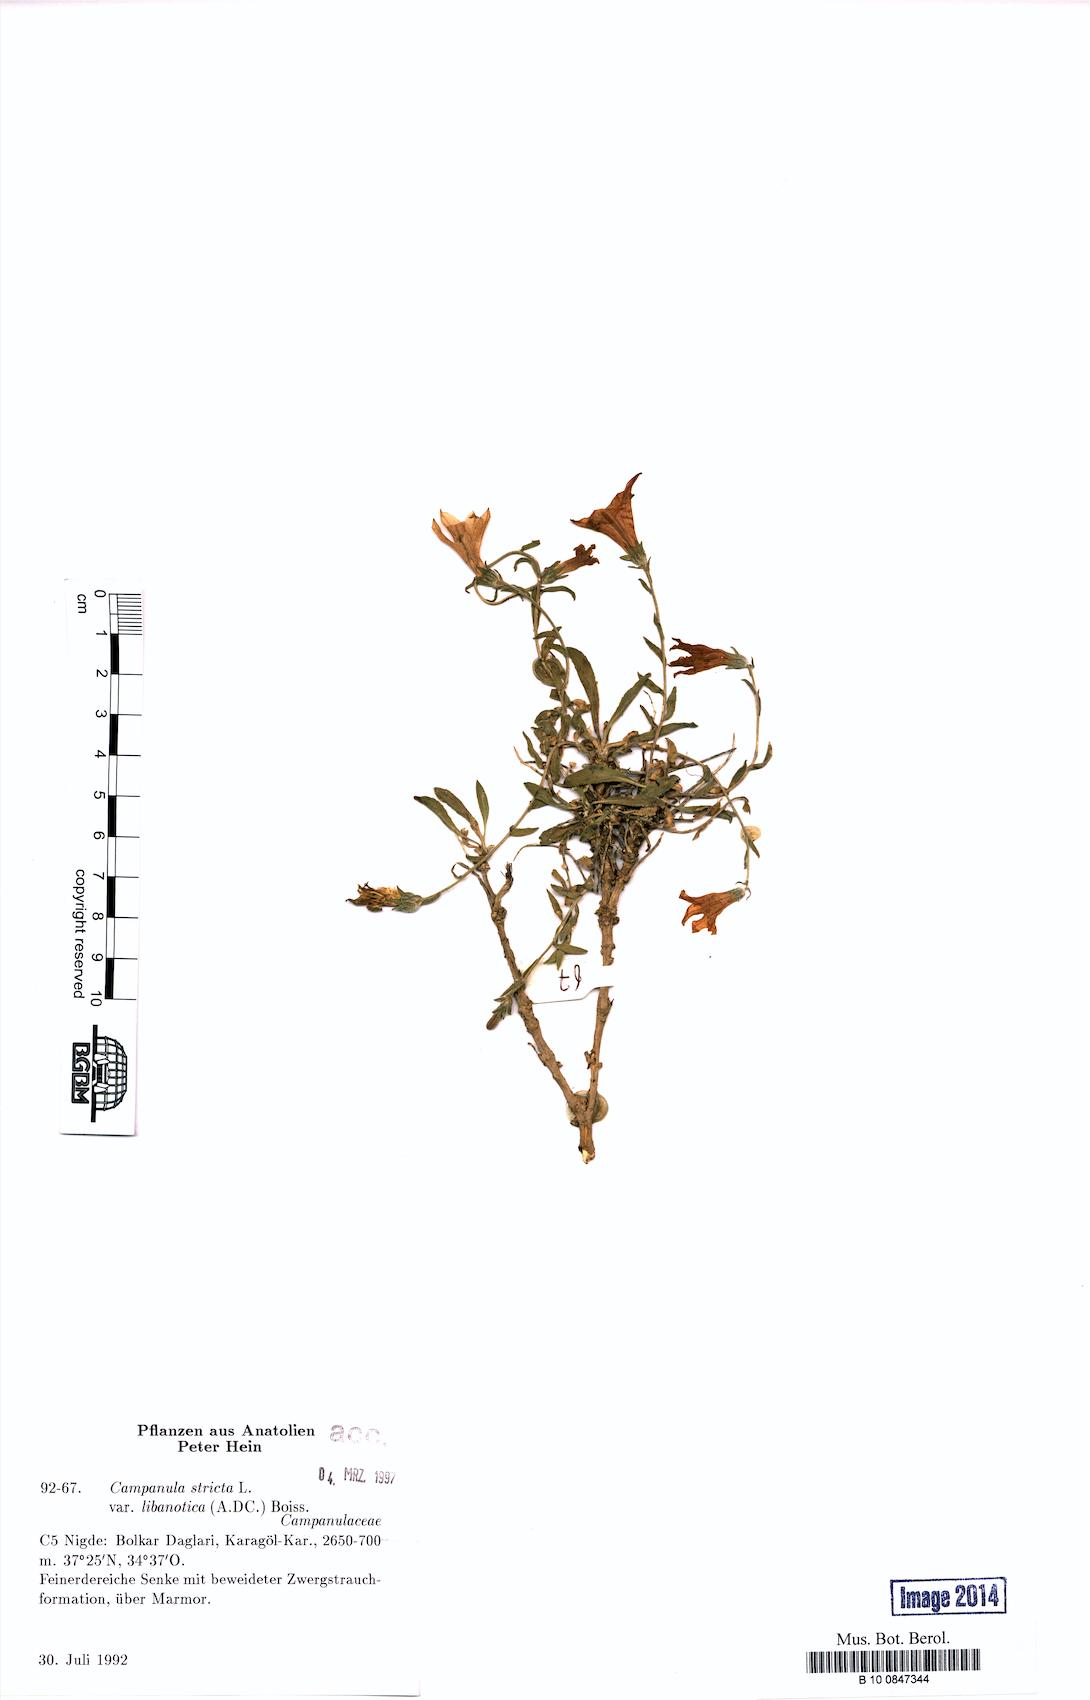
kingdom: Plantae
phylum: Tracheophyta
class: Magnoliopsida
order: Asterales
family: Campanulaceae
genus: Campanula
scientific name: Campanula stricta
